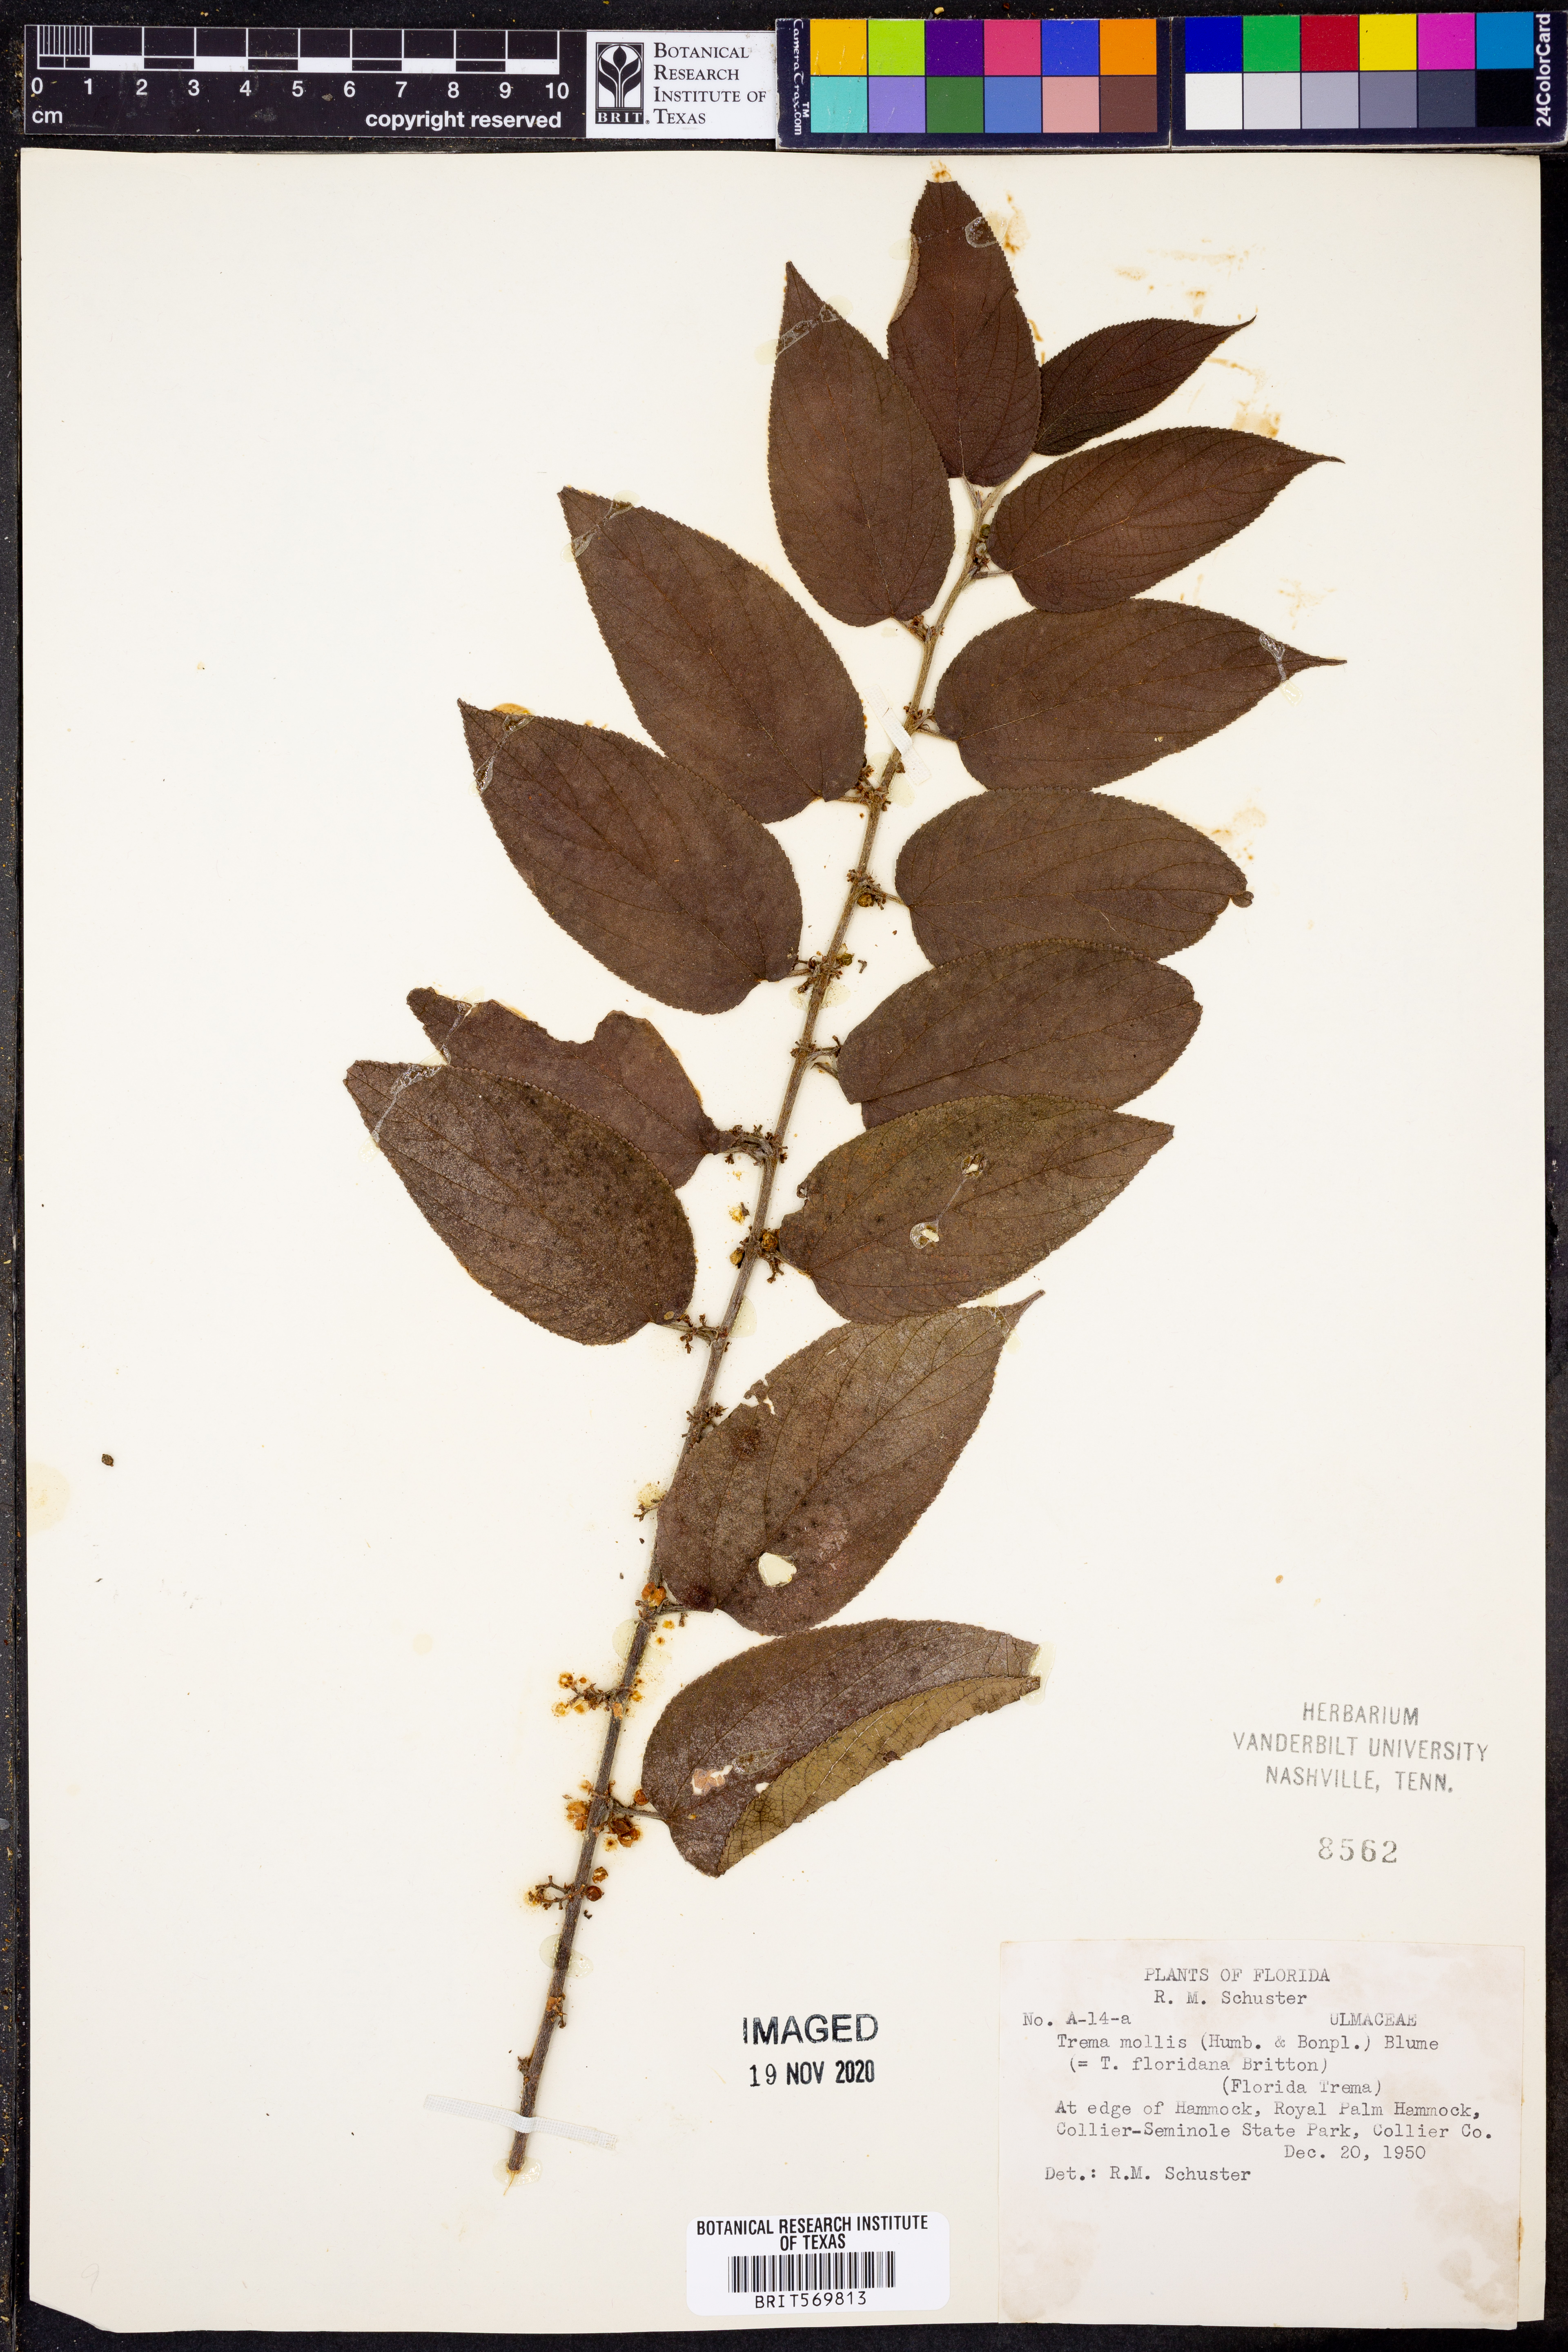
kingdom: Plantae
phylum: Tracheophyta
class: Magnoliopsida
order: Rosales
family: Cannabaceae
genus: Trema
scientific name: Trema micranthum
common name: Jamaican nettletree
